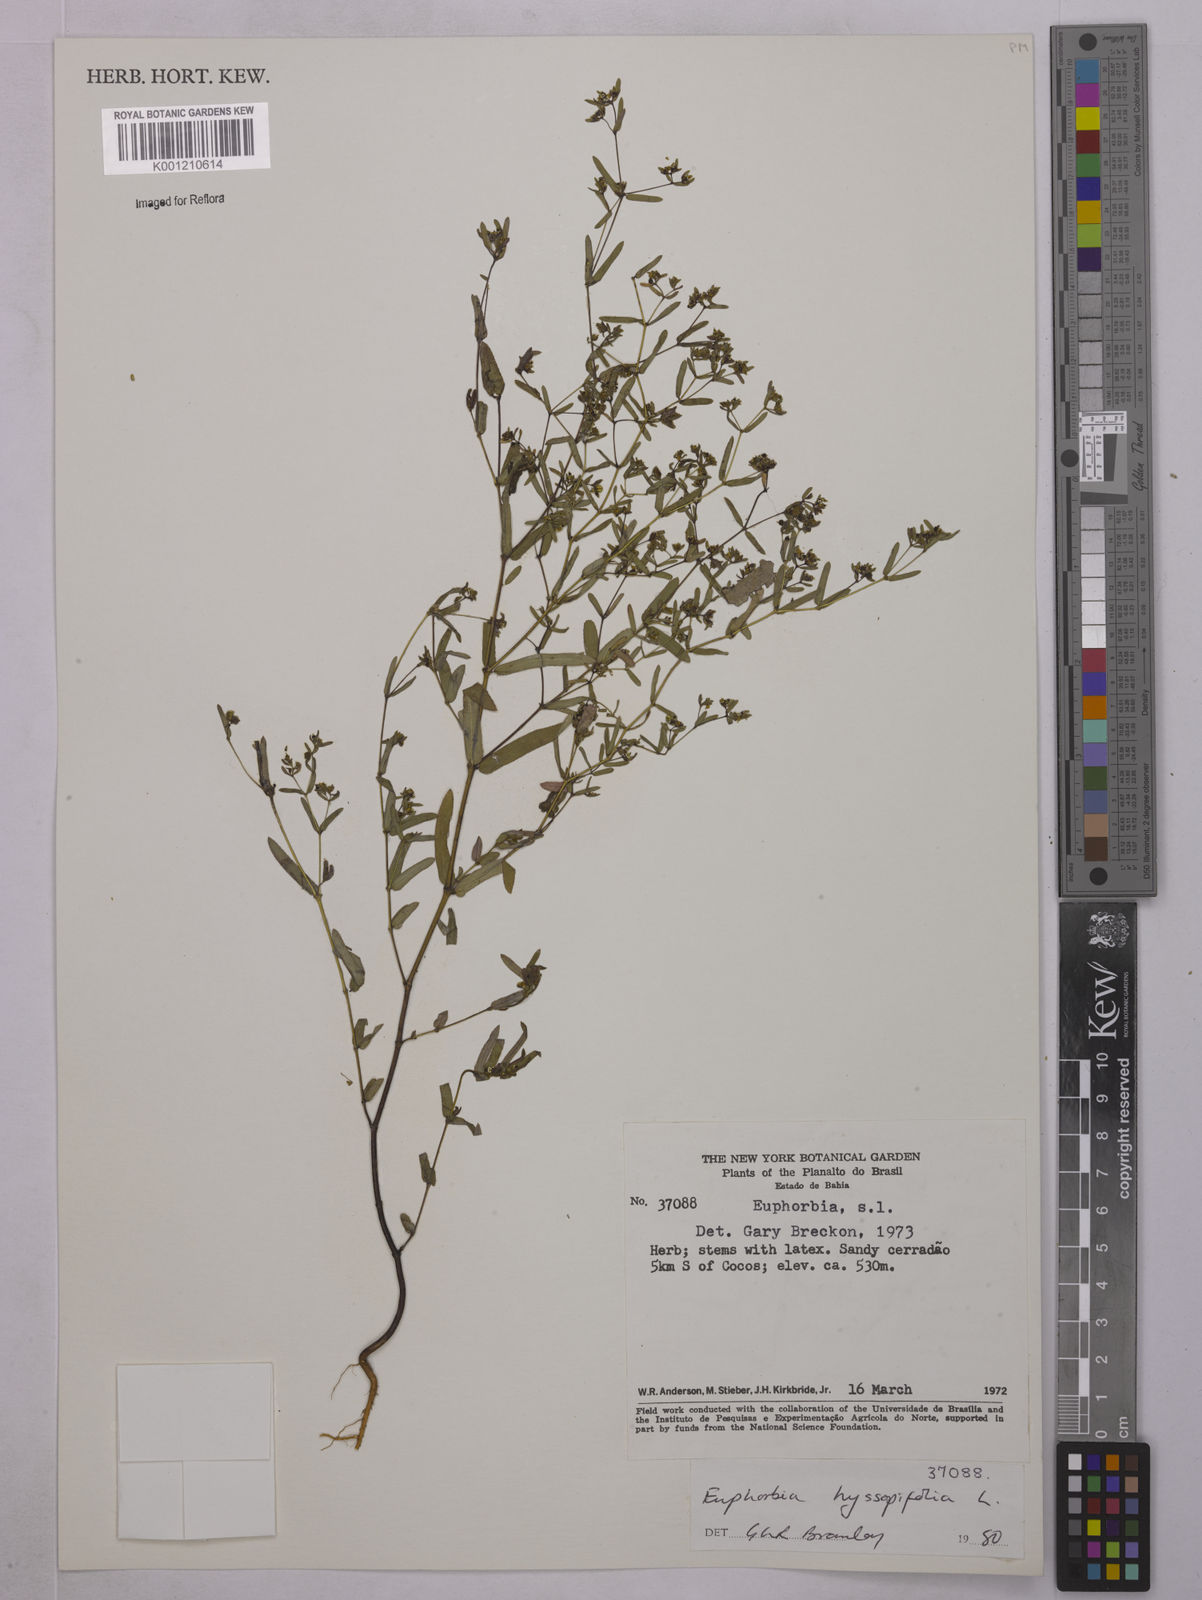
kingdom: Plantae
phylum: Tracheophyta
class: Magnoliopsida
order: Malpighiales
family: Euphorbiaceae
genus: Euphorbia
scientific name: Euphorbia hyssopifolia
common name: Hyssopleaf sandmat
